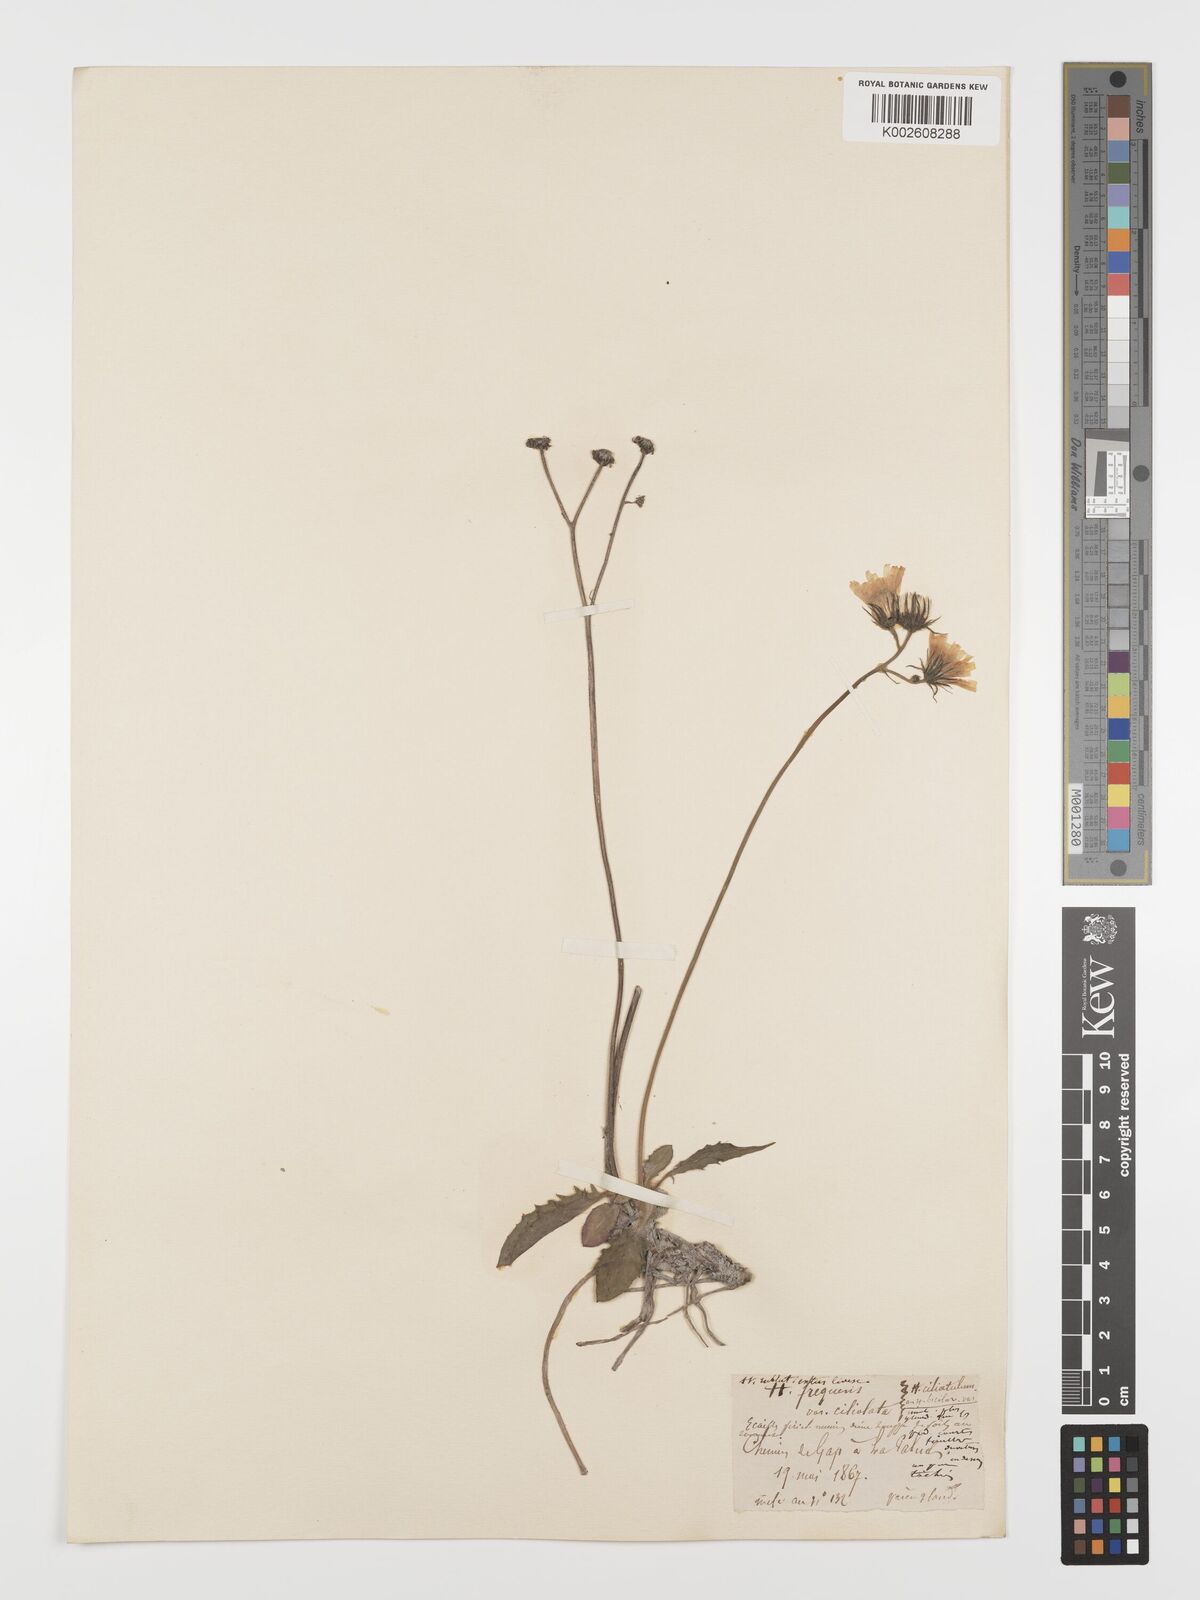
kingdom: Plantae
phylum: Tracheophyta
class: Magnoliopsida
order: Asterales
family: Asteraceae
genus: Hieracium
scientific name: Hieracium
